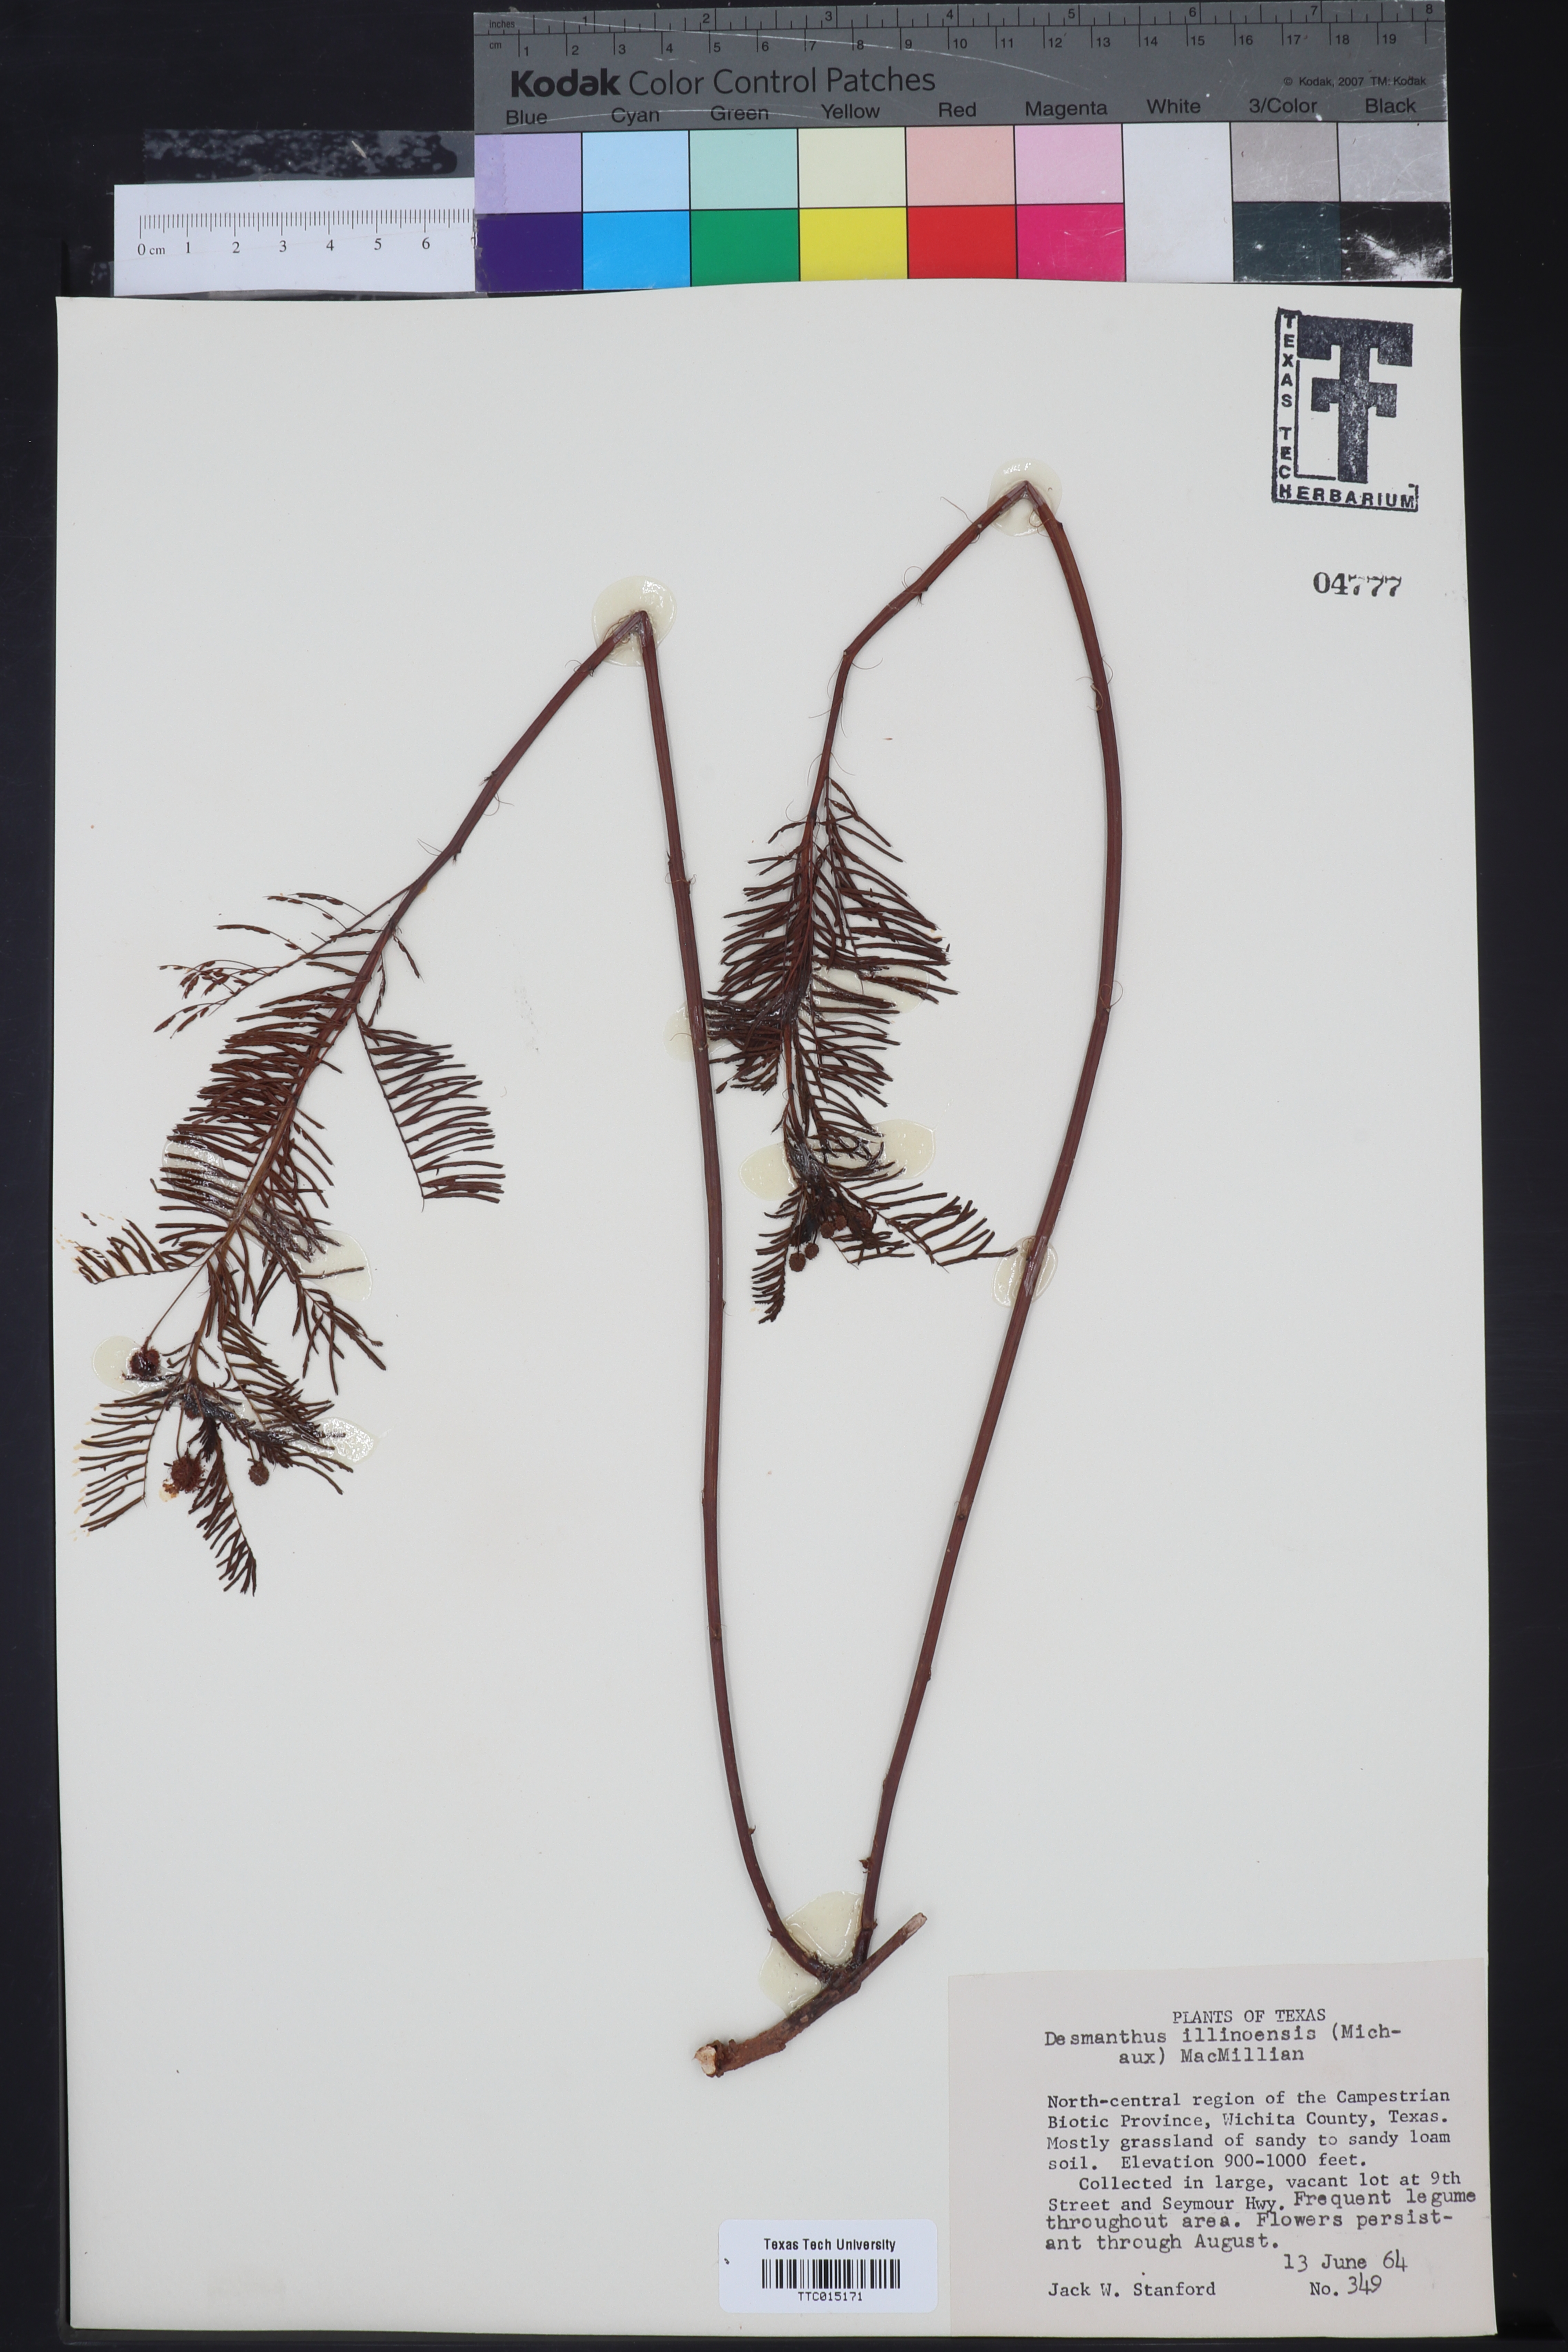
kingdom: Plantae
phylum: Tracheophyta
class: Magnoliopsida
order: Fabales
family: Fabaceae
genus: Desmanthus
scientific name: Desmanthus illinoensis
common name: Illinois bundle-flower
